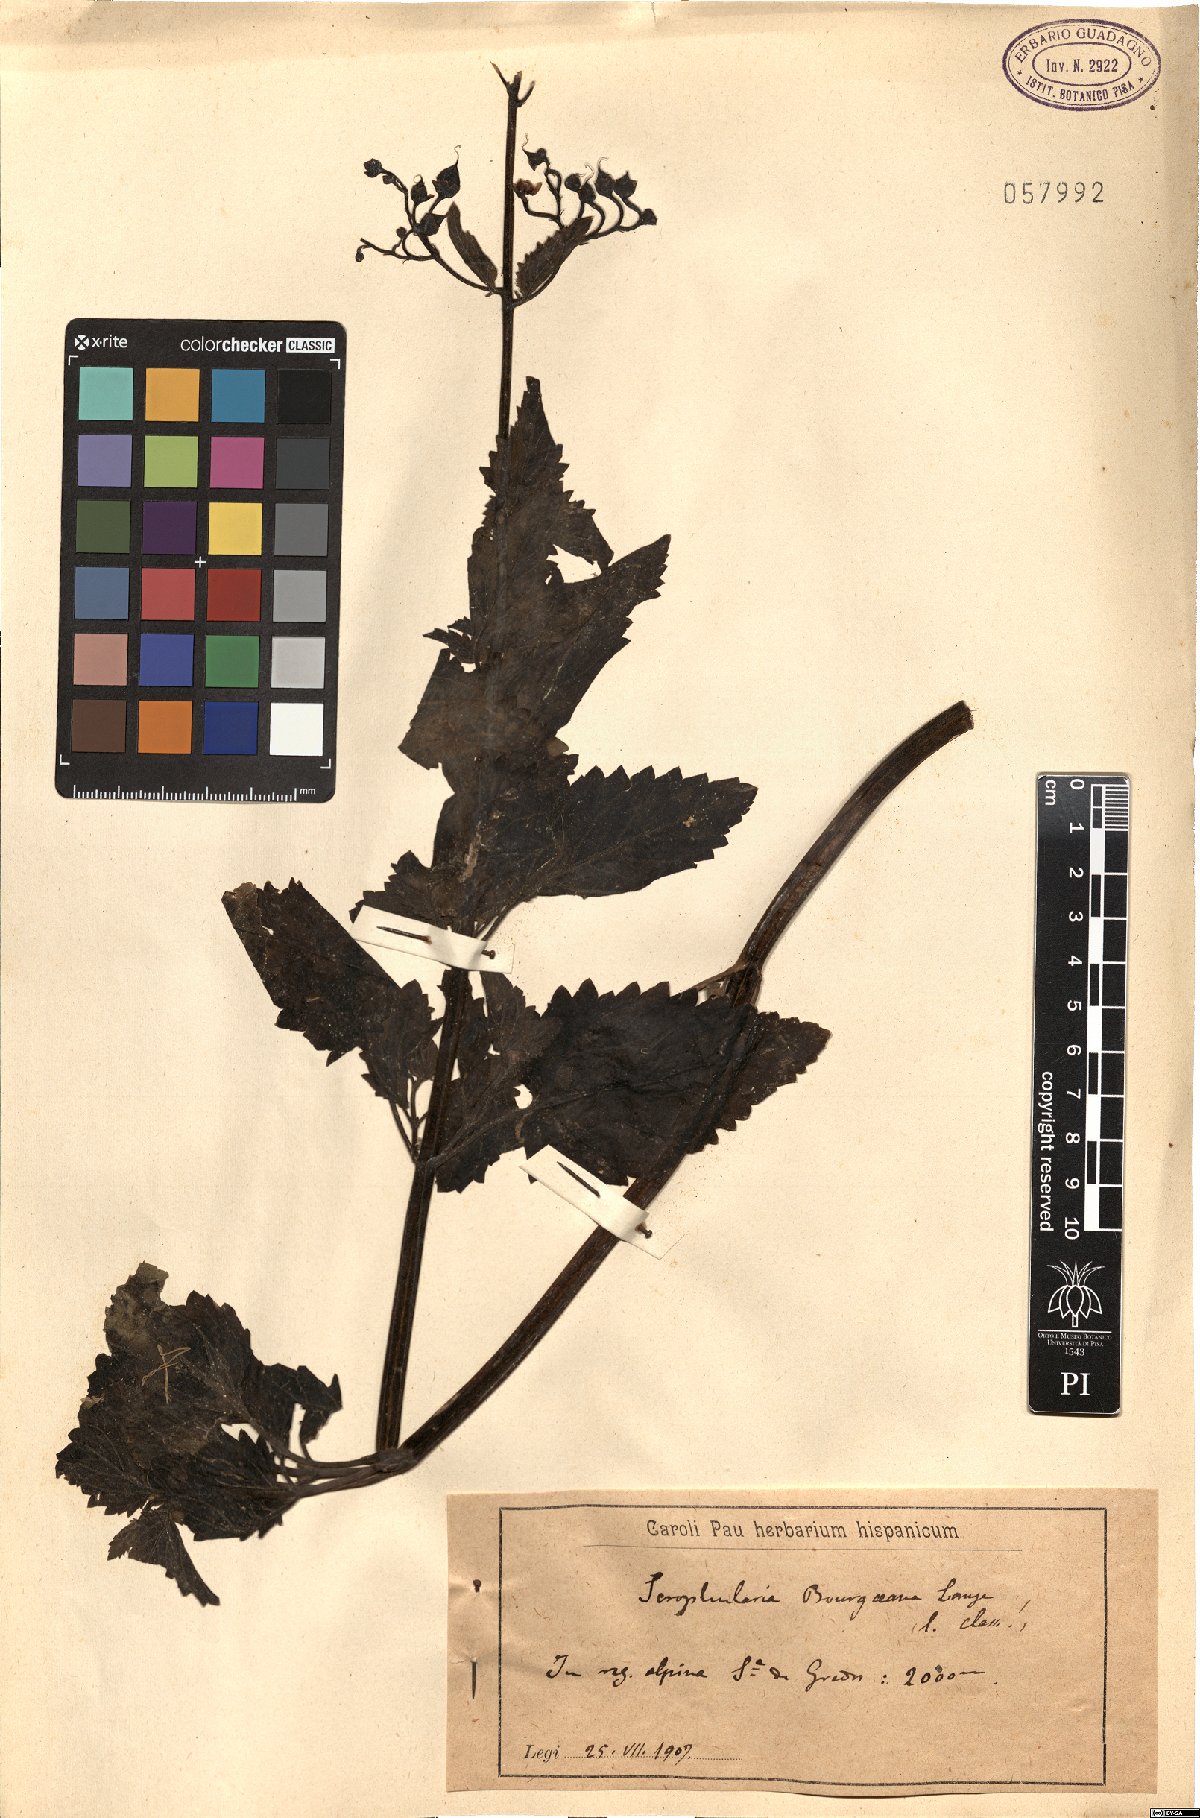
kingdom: Plantae
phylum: Tracheophyta
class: Magnoliopsida
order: Lamiales
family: Scrophulariaceae
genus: Scrophularia
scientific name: Scrophularia buergeriana
